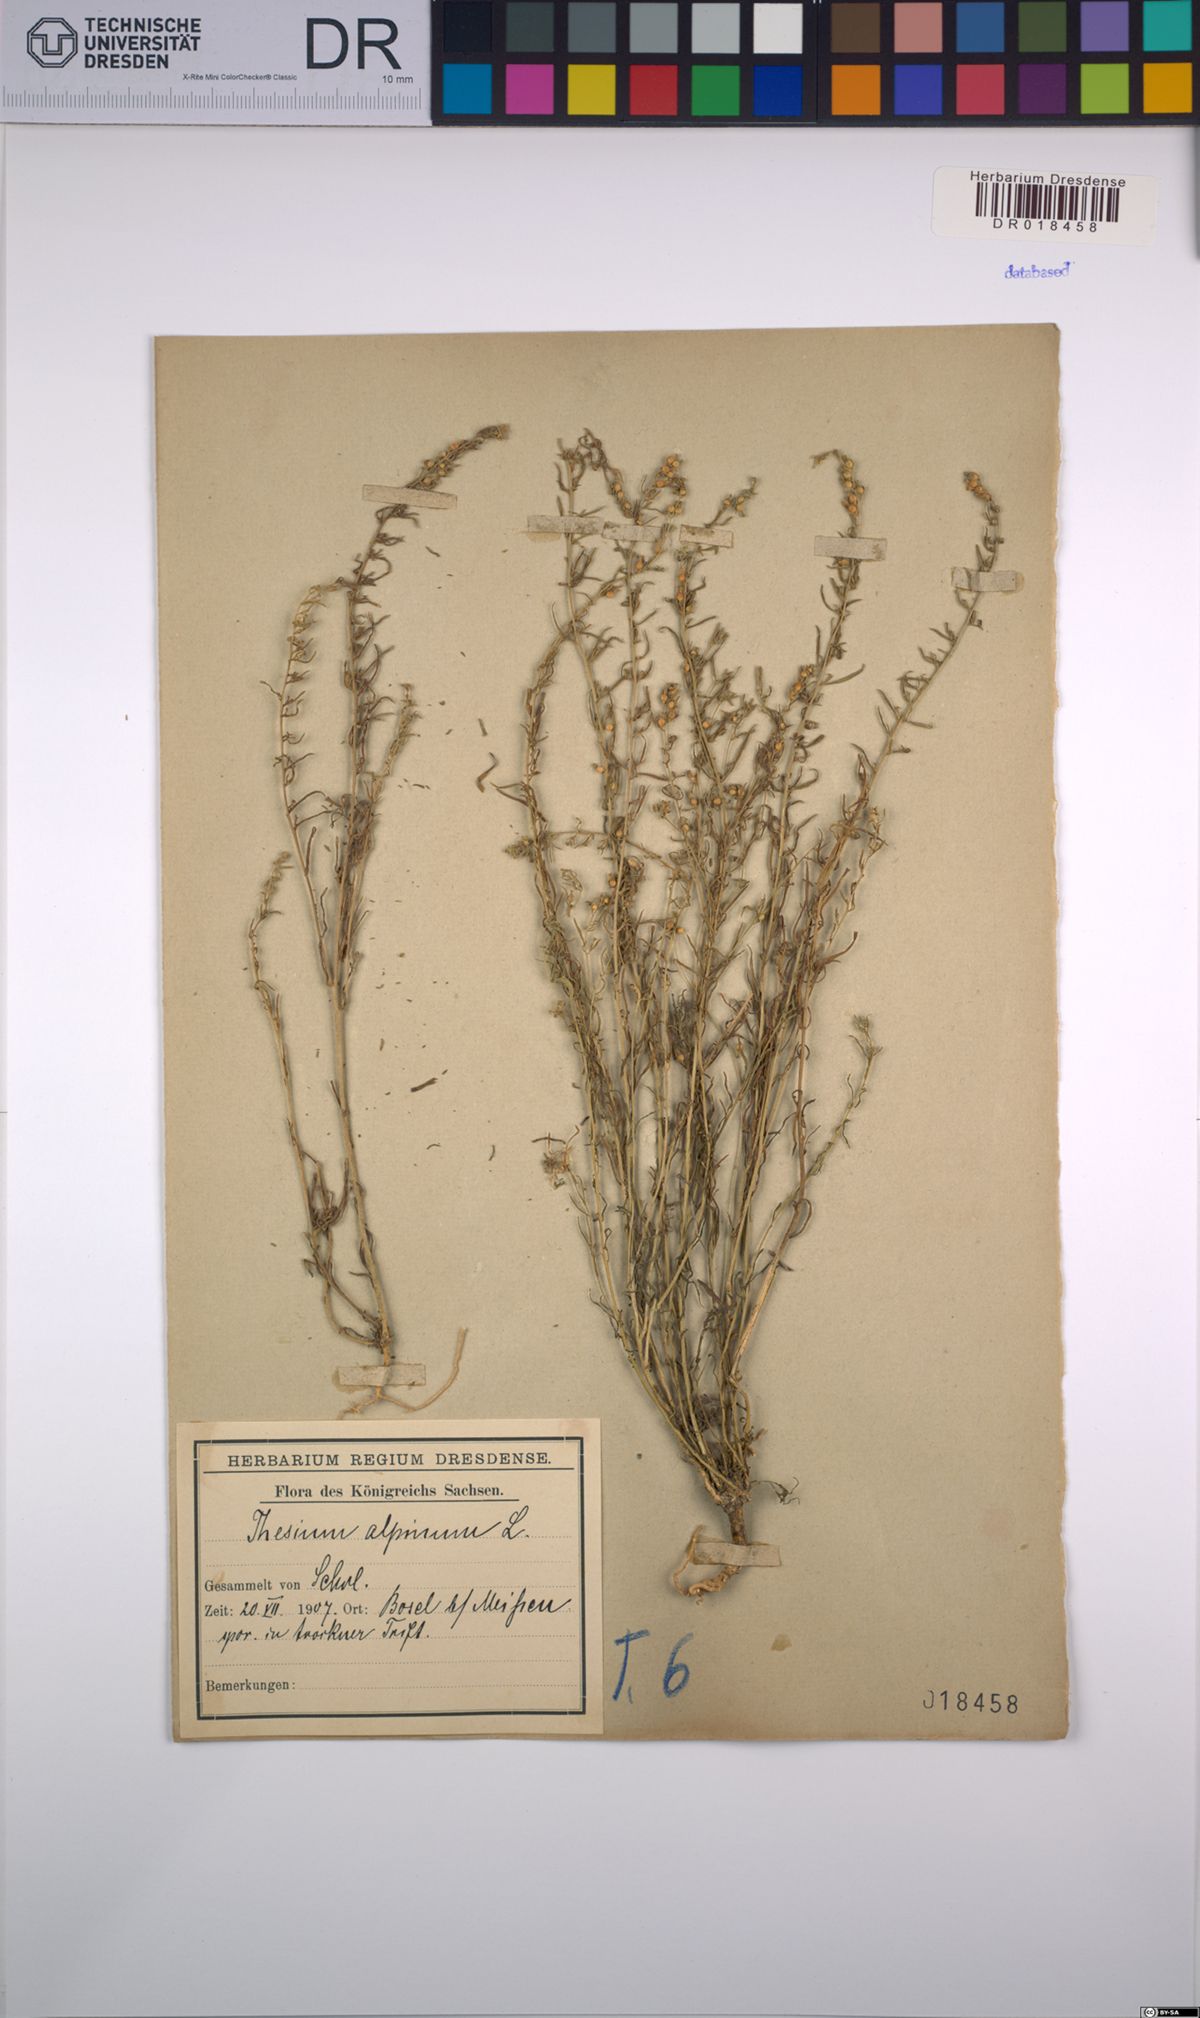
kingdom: Plantae
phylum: Tracheophyta
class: Magnoliopsida
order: Santalales
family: Thesiaceae
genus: Thesium
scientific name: Thesium alpinum
